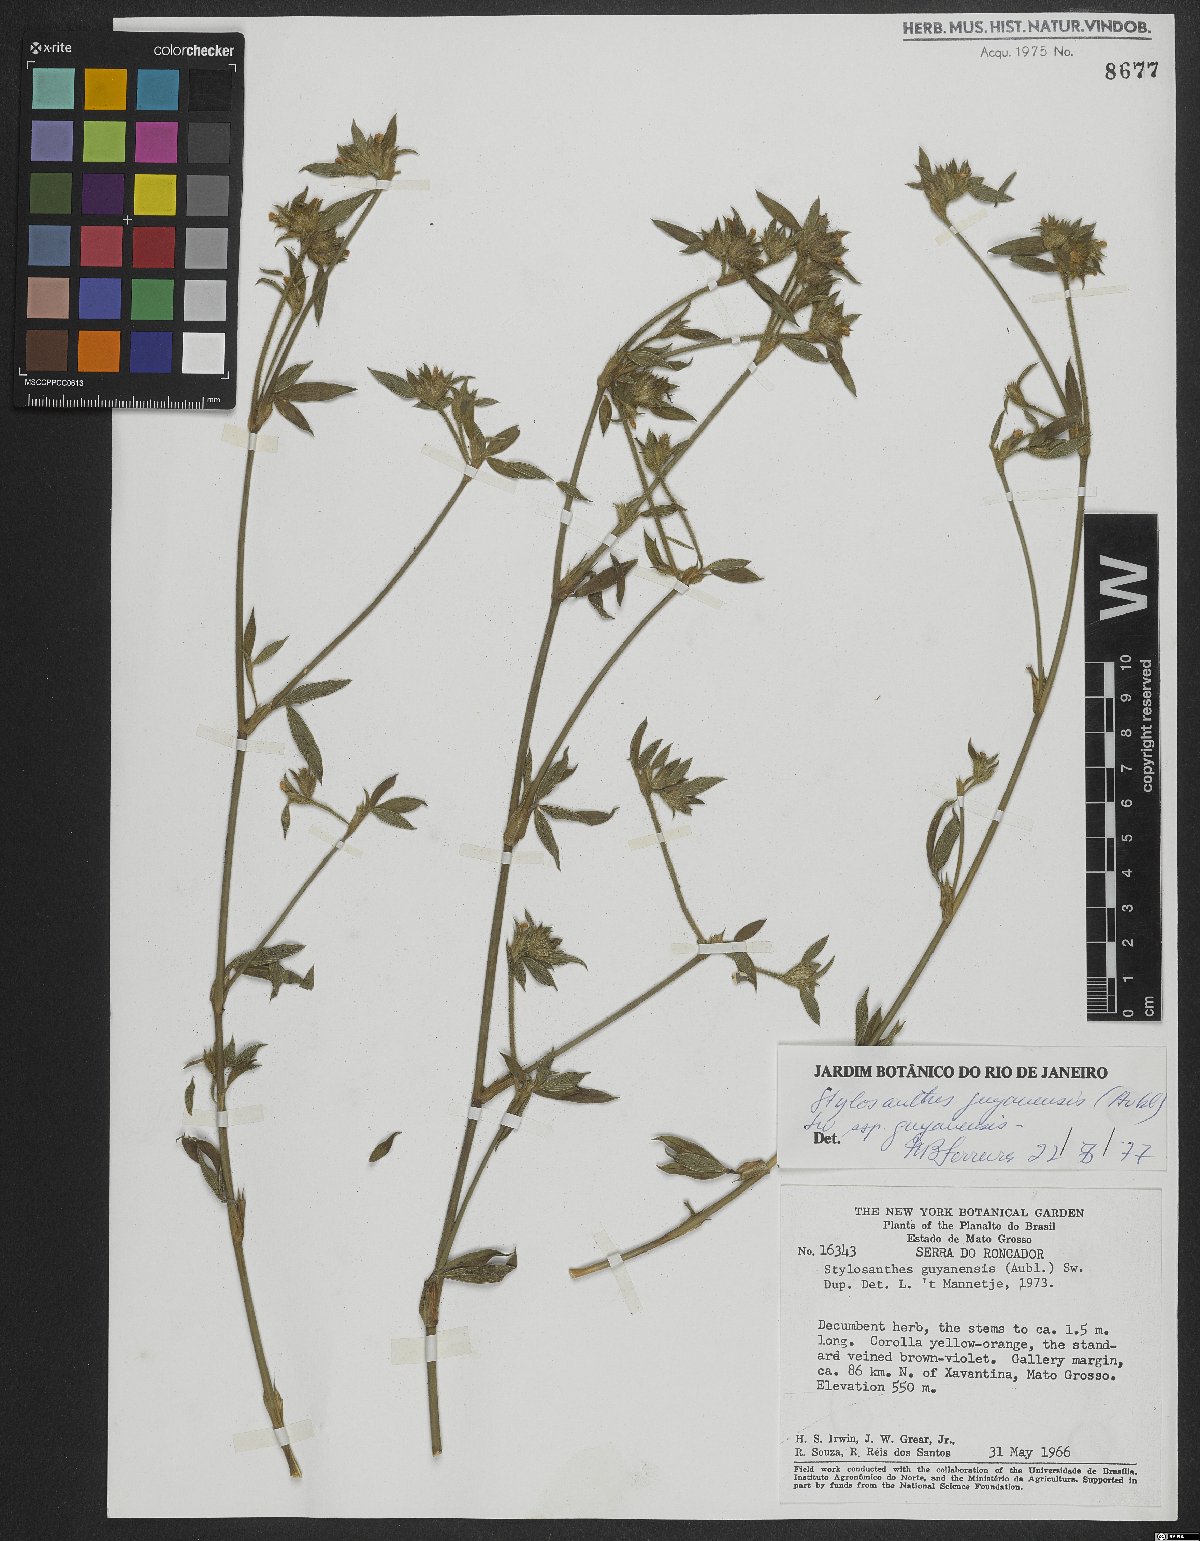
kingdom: Plantae
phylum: Tracheophyta
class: Magnoliopsida
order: Fabales
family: Fabaceae
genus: Stylosanthes
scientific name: Stylosanthes guianensis
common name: Pencil flower
